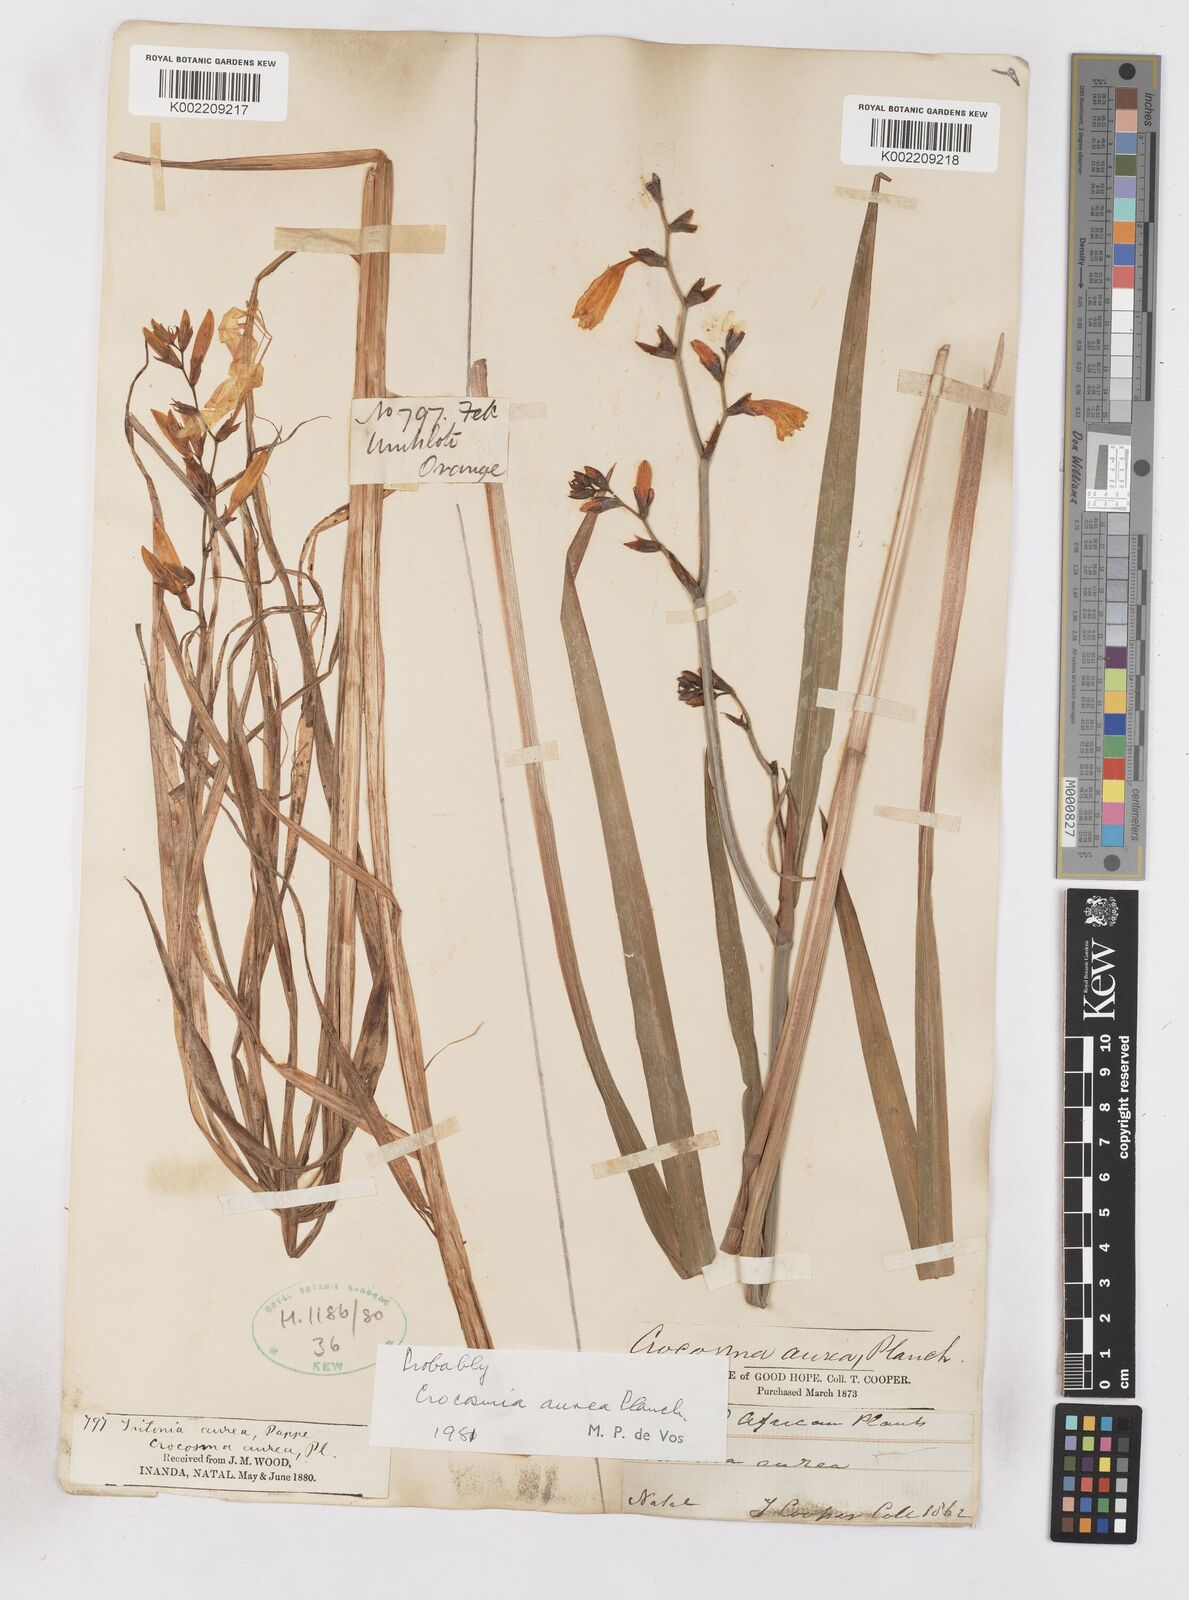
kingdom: Plantae
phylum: Tracheophyta
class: Liliopsida
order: Asparagales
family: Iridaceae
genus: Crocosmia
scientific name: Crocosmia aurea
